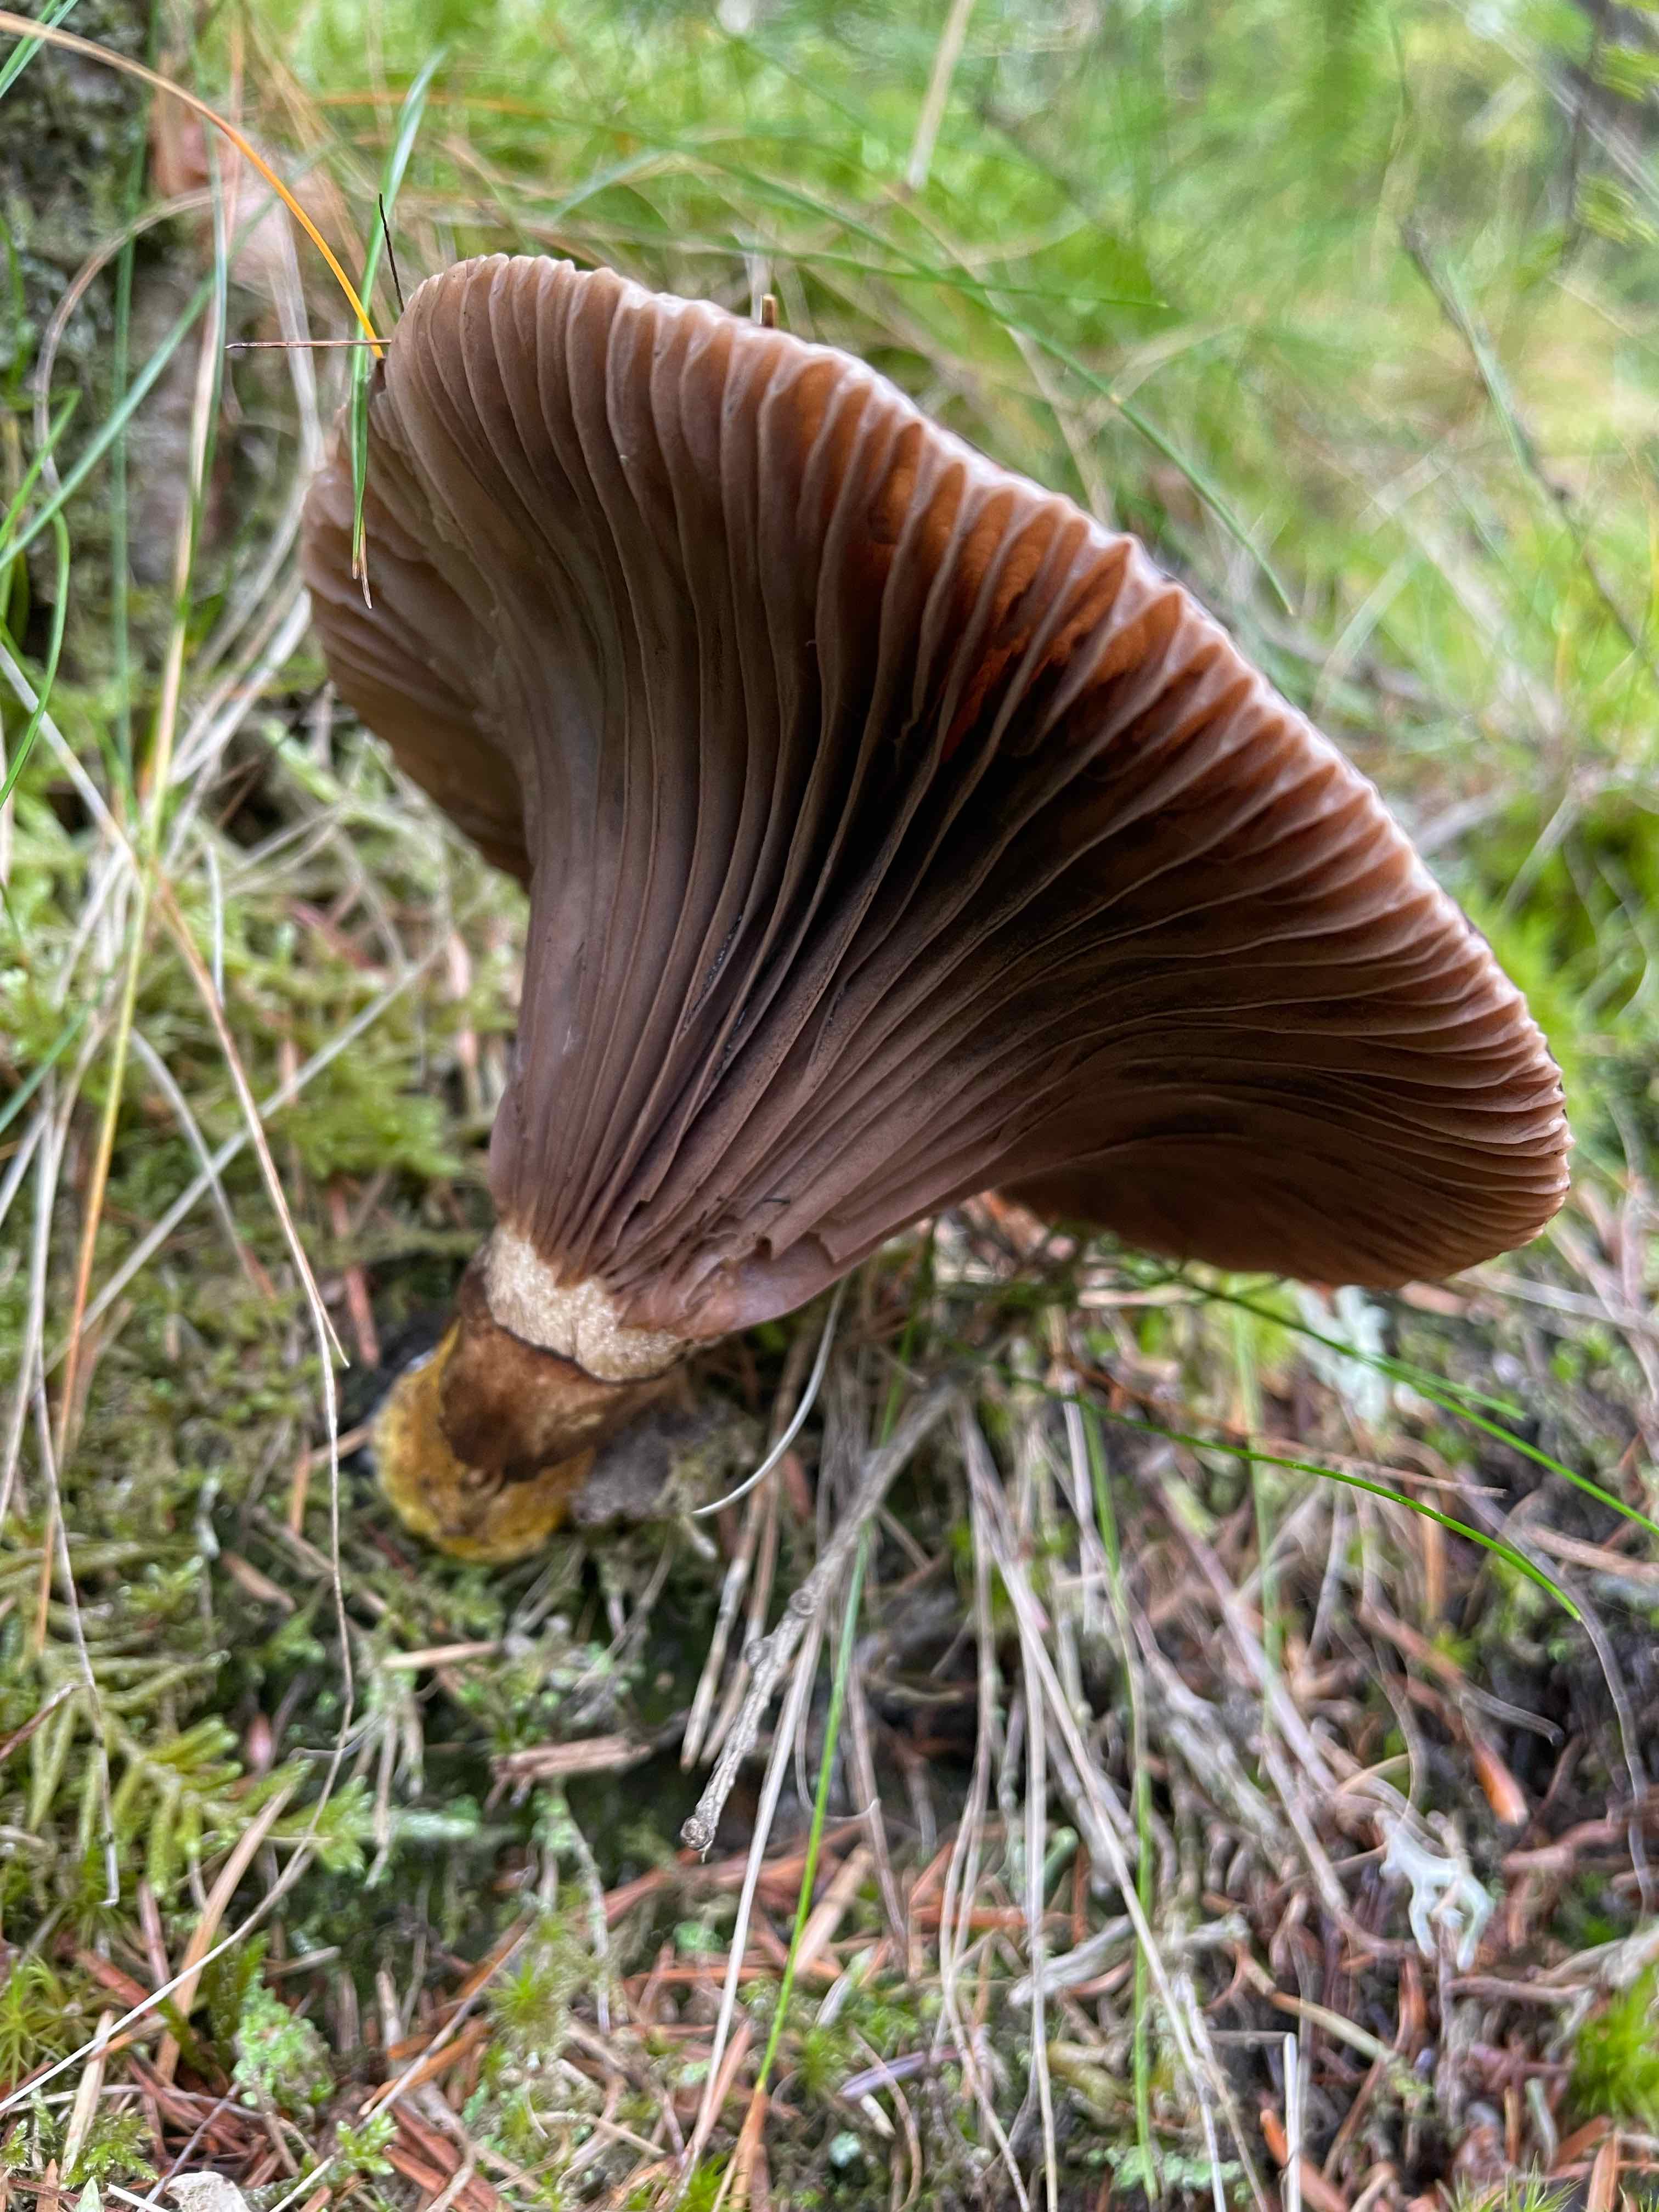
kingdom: Fungi
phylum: Basidiomycota
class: Agaricomycetes
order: Boletales
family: Gomphidiaceae
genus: Gomphidius
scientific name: Gomphidius glutinosus
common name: grå slimslør
